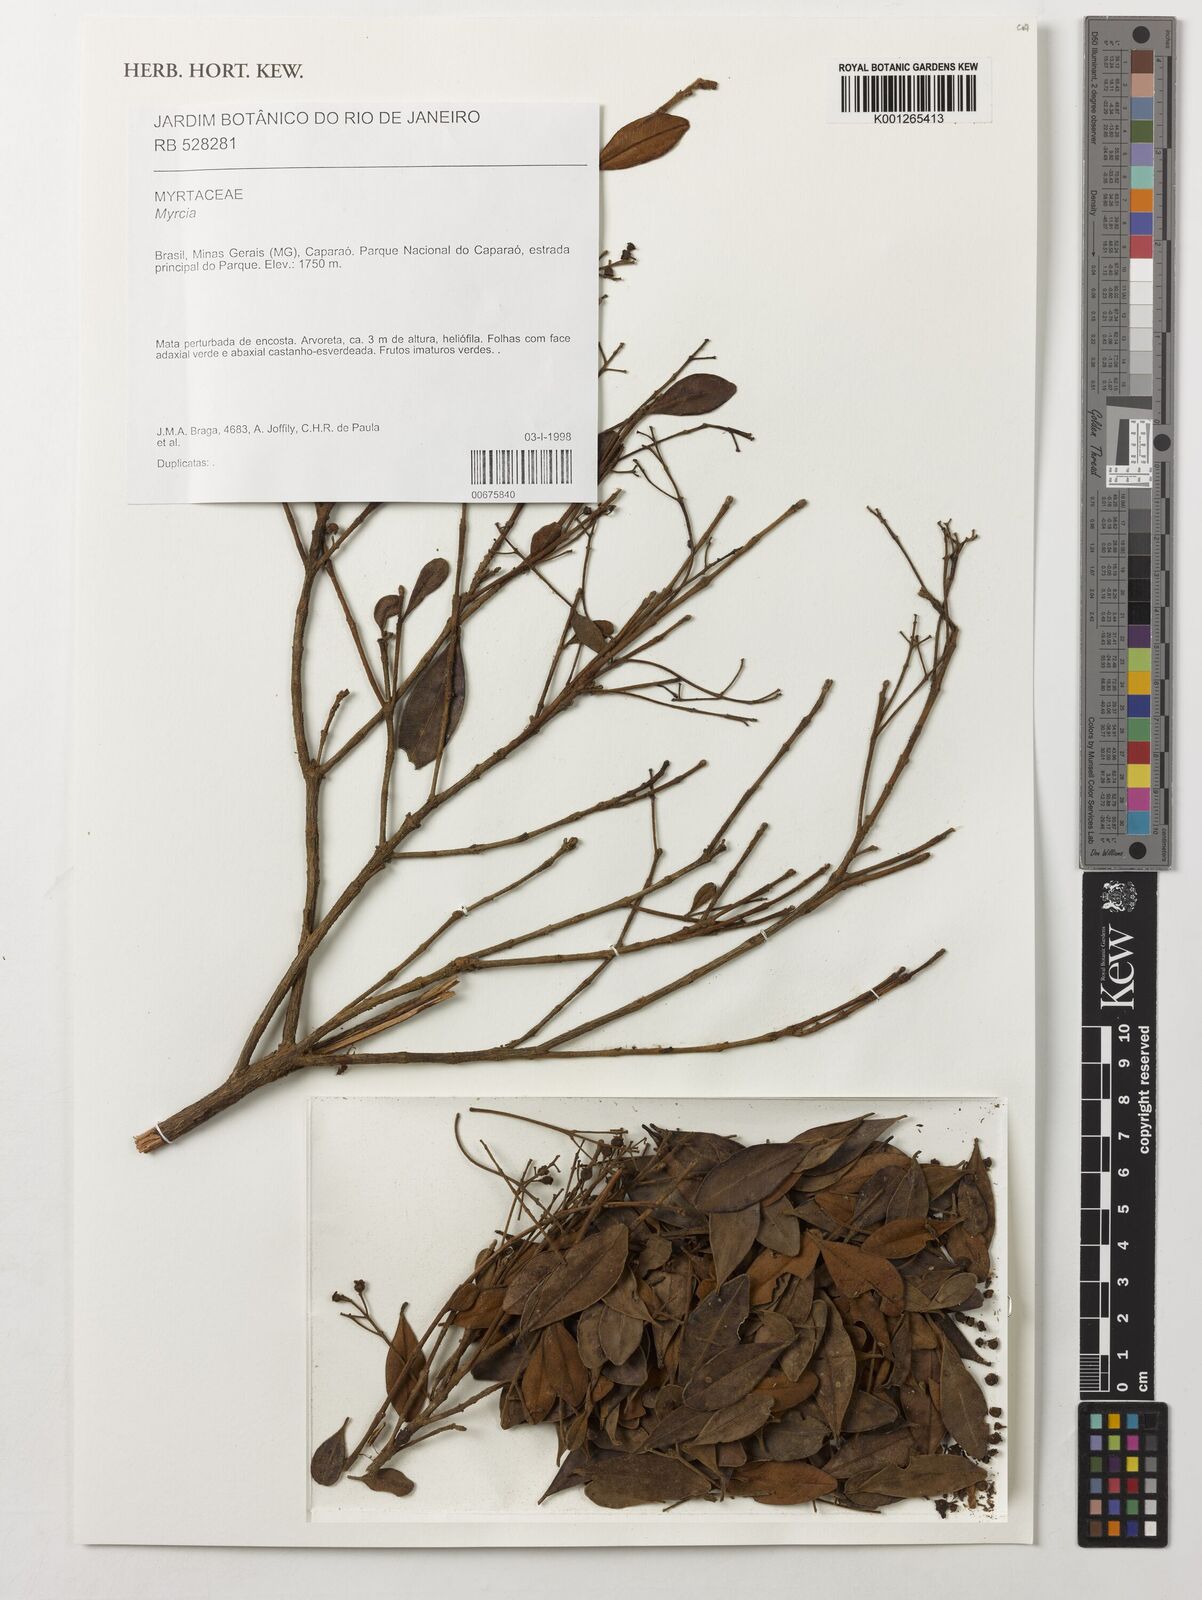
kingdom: Plantae
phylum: Tracheophyta
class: Magnoliopsida
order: Myrtales
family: Myrtaceae
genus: Myrcia
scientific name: Myrcia
